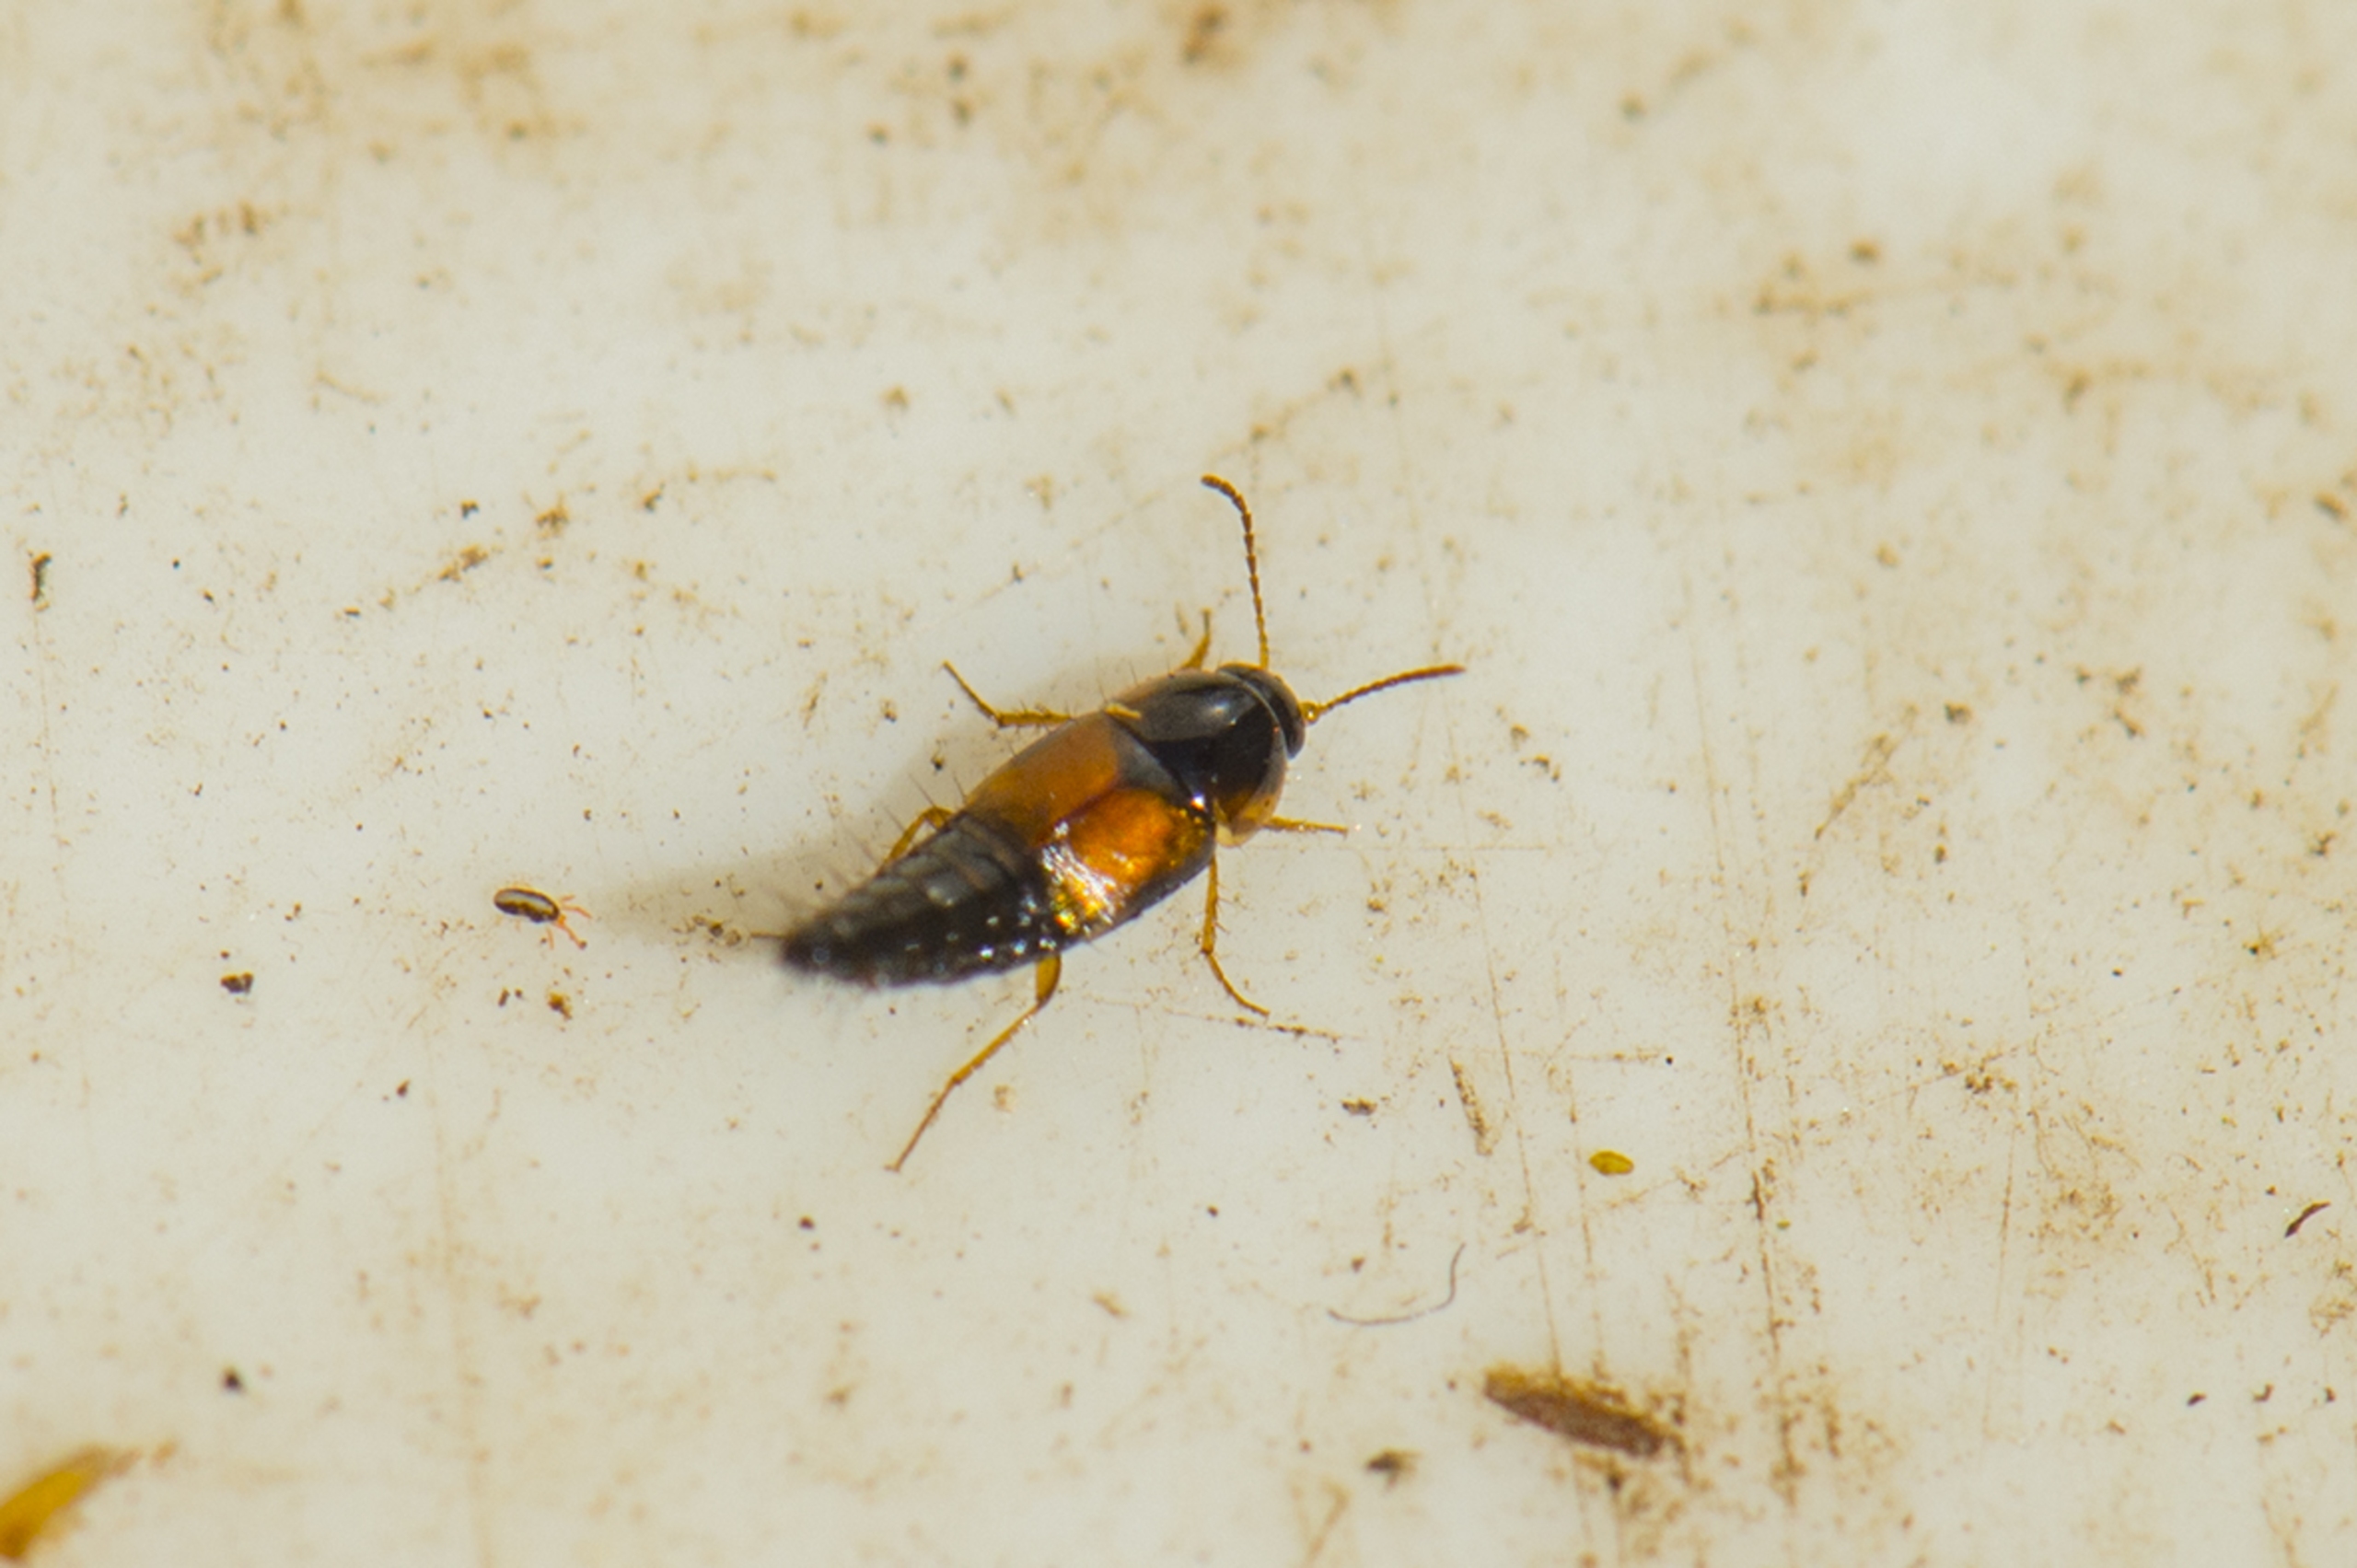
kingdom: Animalia
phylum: Arthropoda
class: Insecta
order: Coleoptera
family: Staphylinidae
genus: Tachyporus
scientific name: Tachyporus hypnorum
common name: Sortplettet agerrovbille
